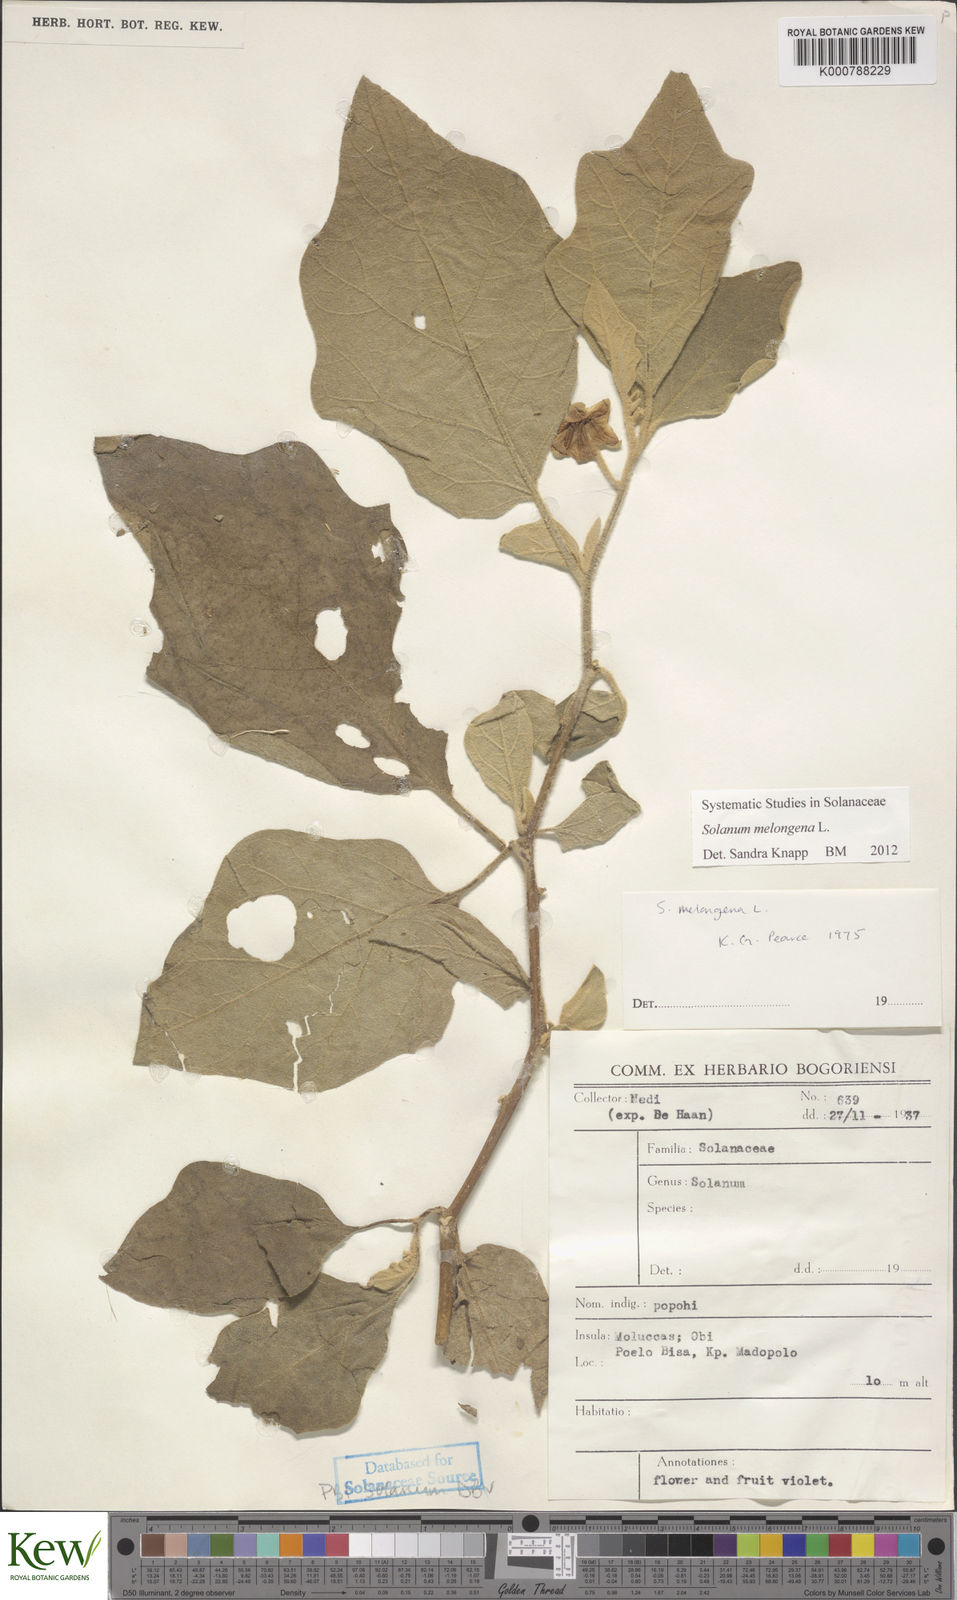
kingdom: Plantae
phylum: Tracheophyta
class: Magnoliopsida
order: Solanales
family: Solanaceae
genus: Solanum
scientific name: Solanum melongena
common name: Eggplant
